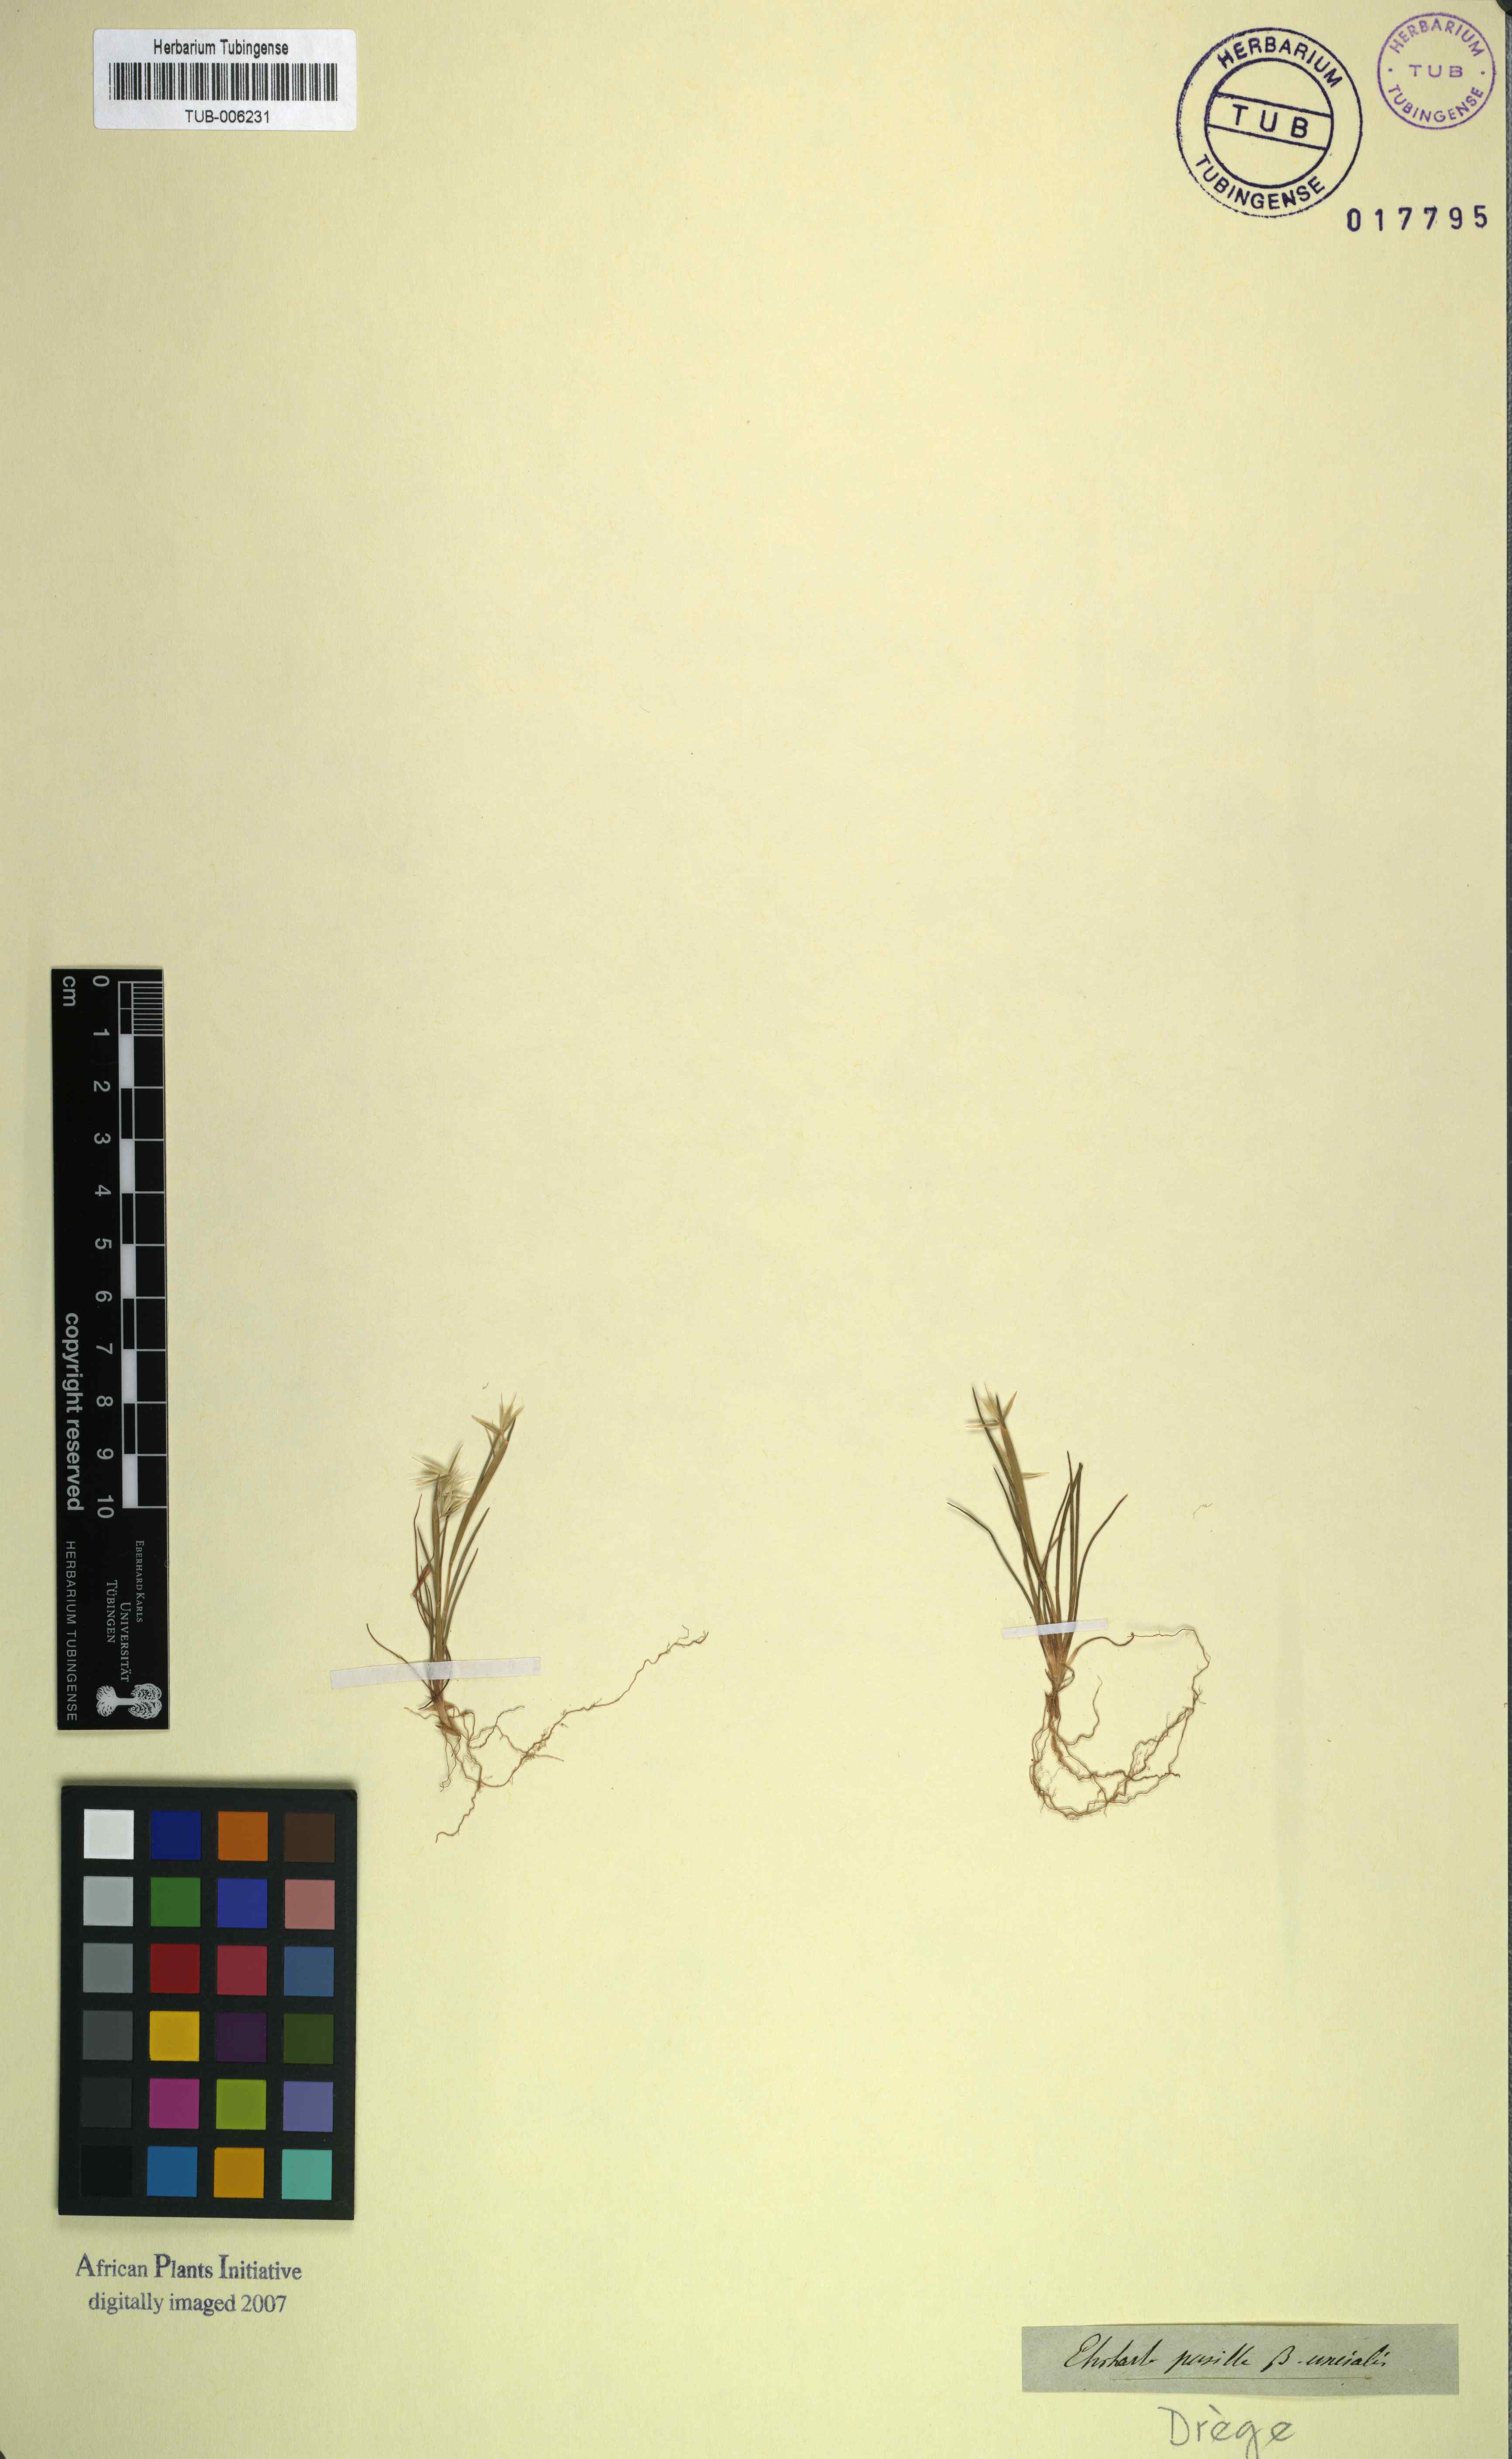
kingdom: Plantae
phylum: Tracheophyta
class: Liliopsida
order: Poales
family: Poaceae
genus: Ehrharta
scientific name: Ehrharta pusilla
